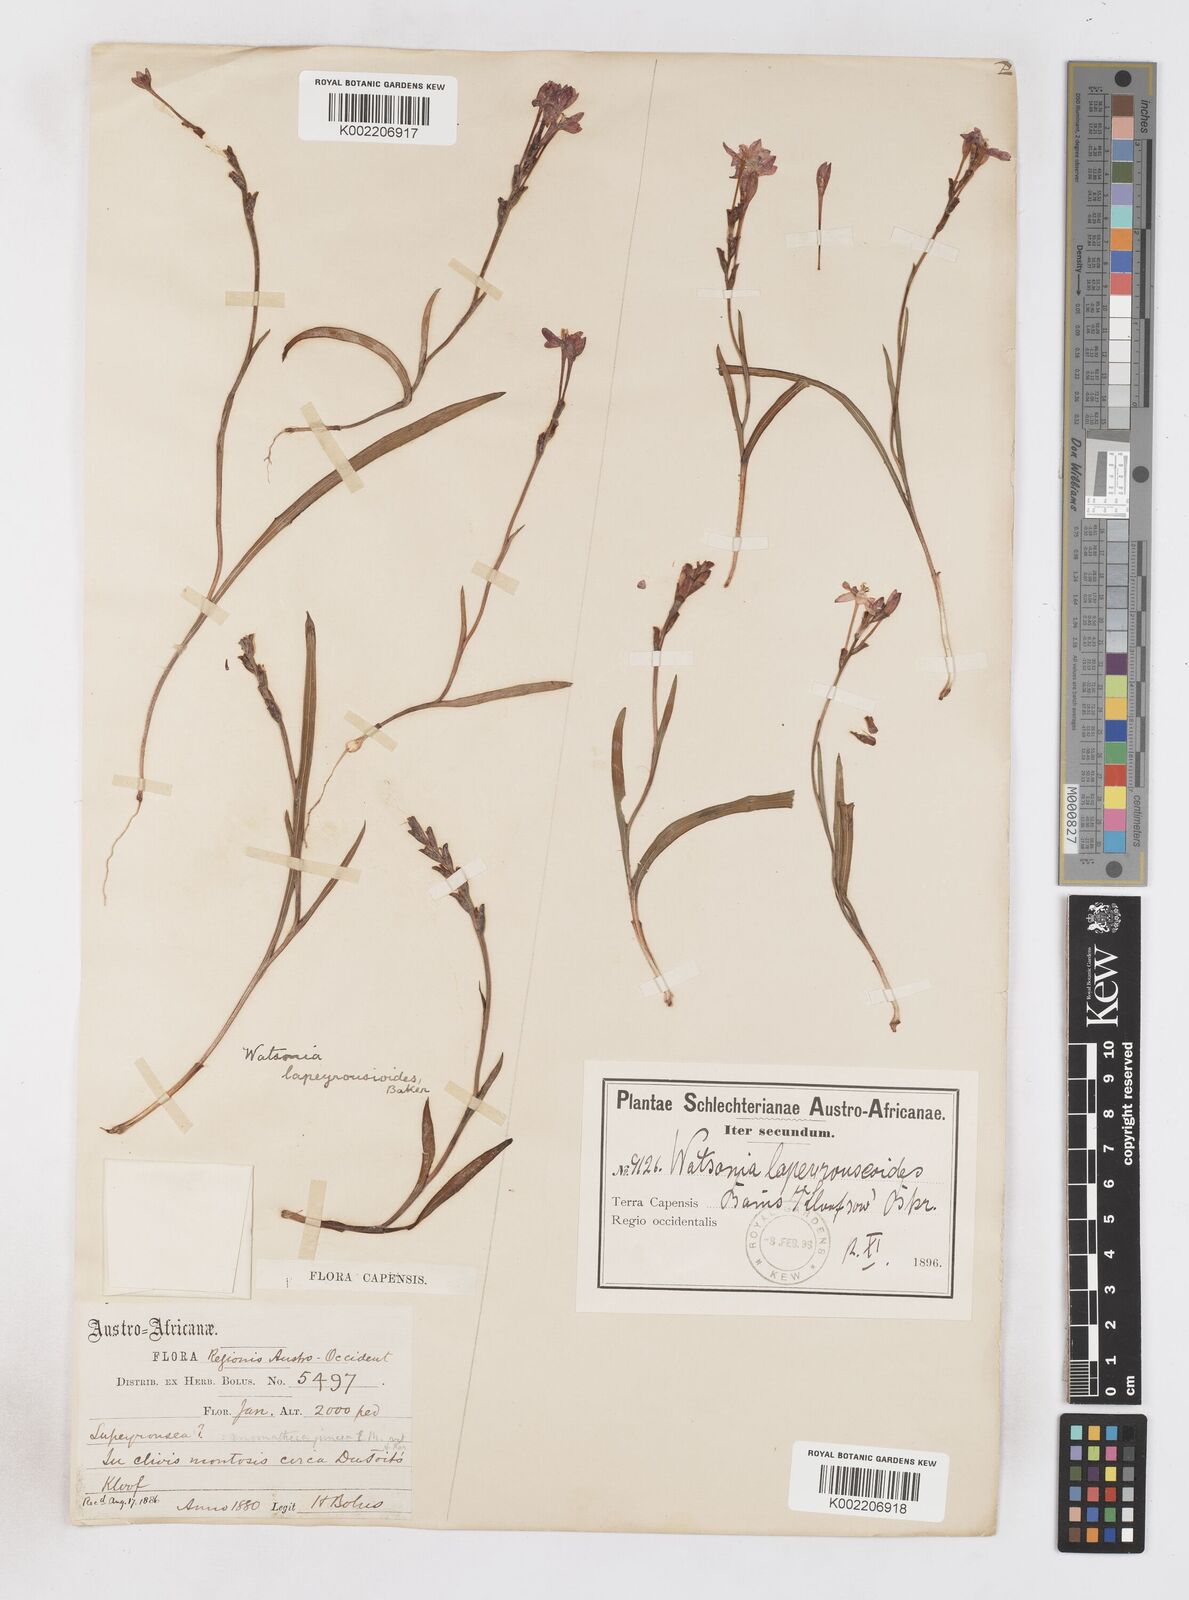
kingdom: Plantae
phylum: Tracheophyta
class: Liliopsida
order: Asparagales
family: Iridaceae
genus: Micranthus
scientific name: Micranthus
